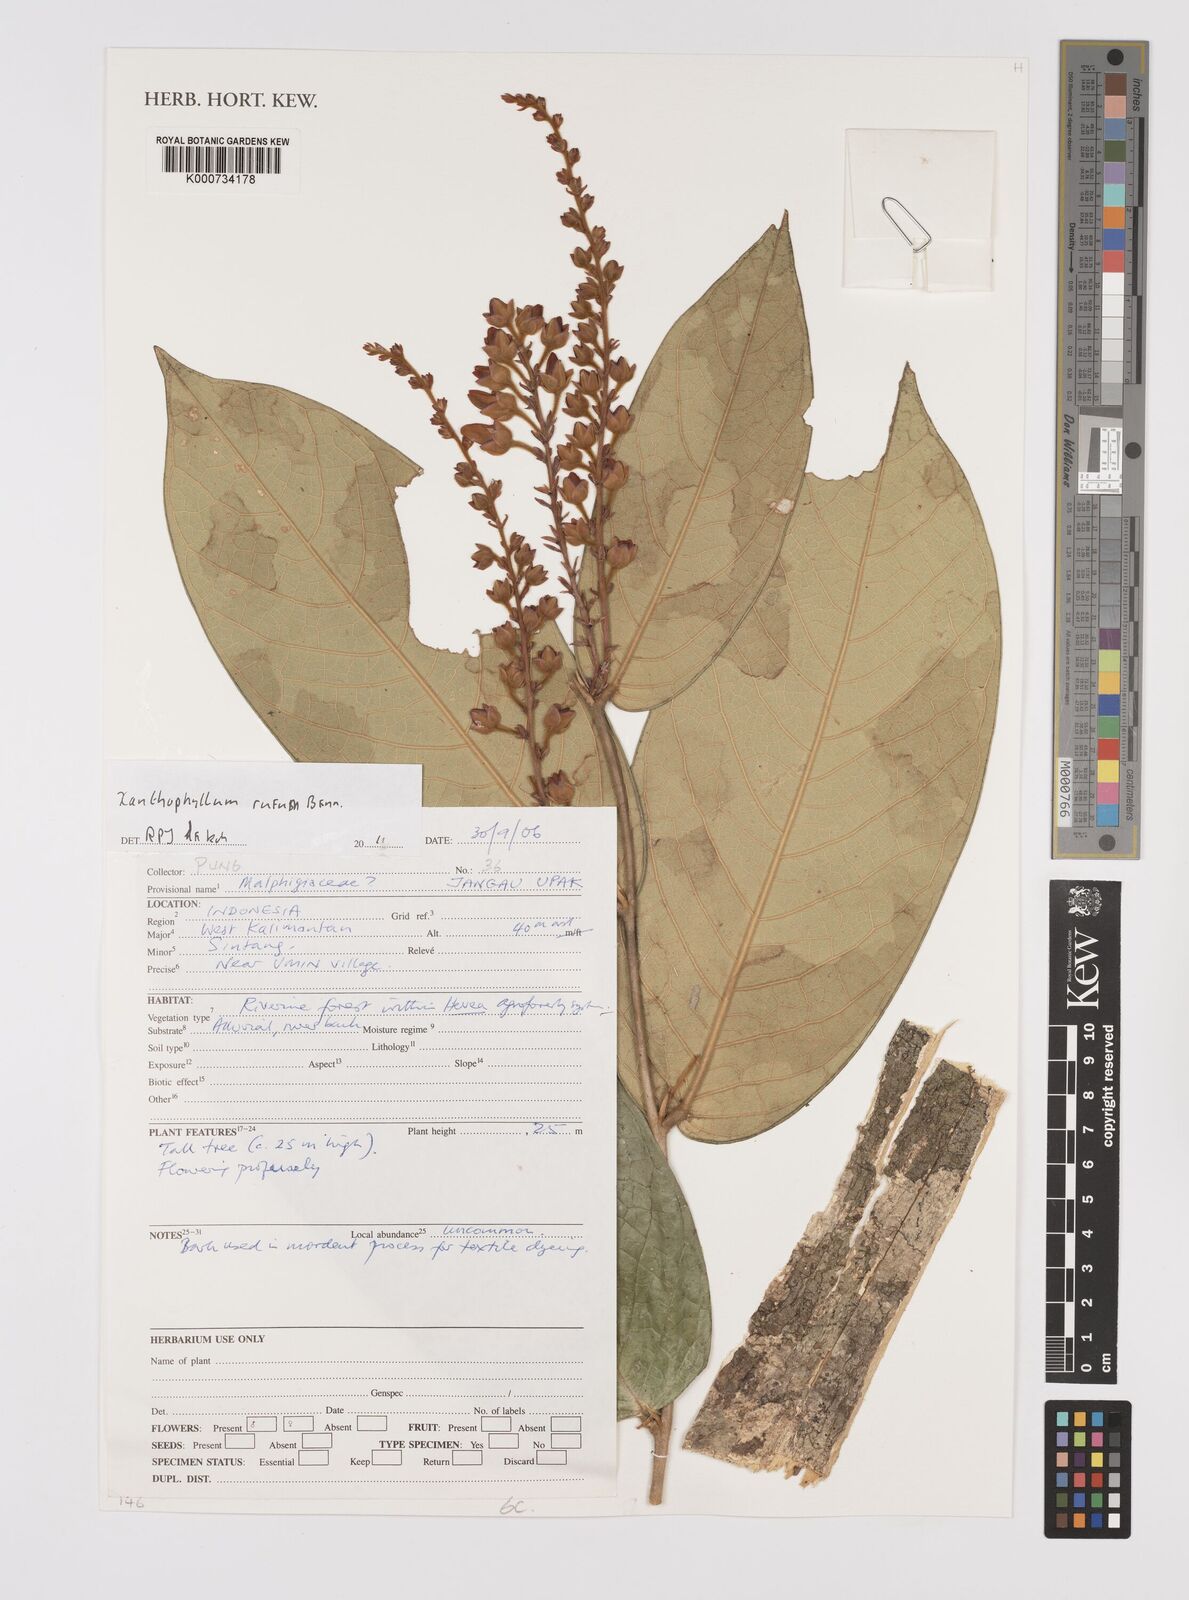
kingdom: Plantae
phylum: Tracheophyta
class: Magnoliopsida
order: Fabales
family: Polygalaceae
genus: Xanthophyllum
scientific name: Xanthophyllum rufum
